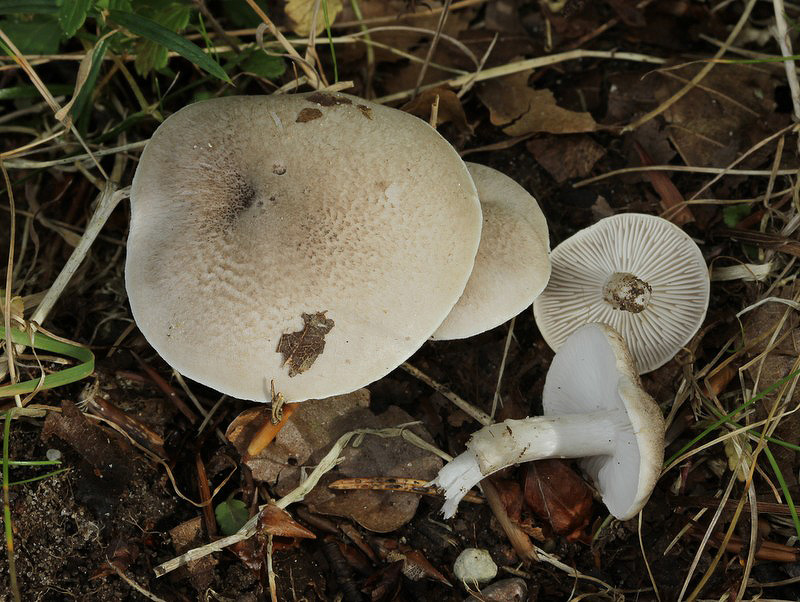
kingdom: Fungi
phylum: Basidiomycota
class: Agaricomycetes
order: Agaricales
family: Tricholomataceae
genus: Tricholoma
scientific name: Tricholoma scalpturatum
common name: gulplettet ridderhat
